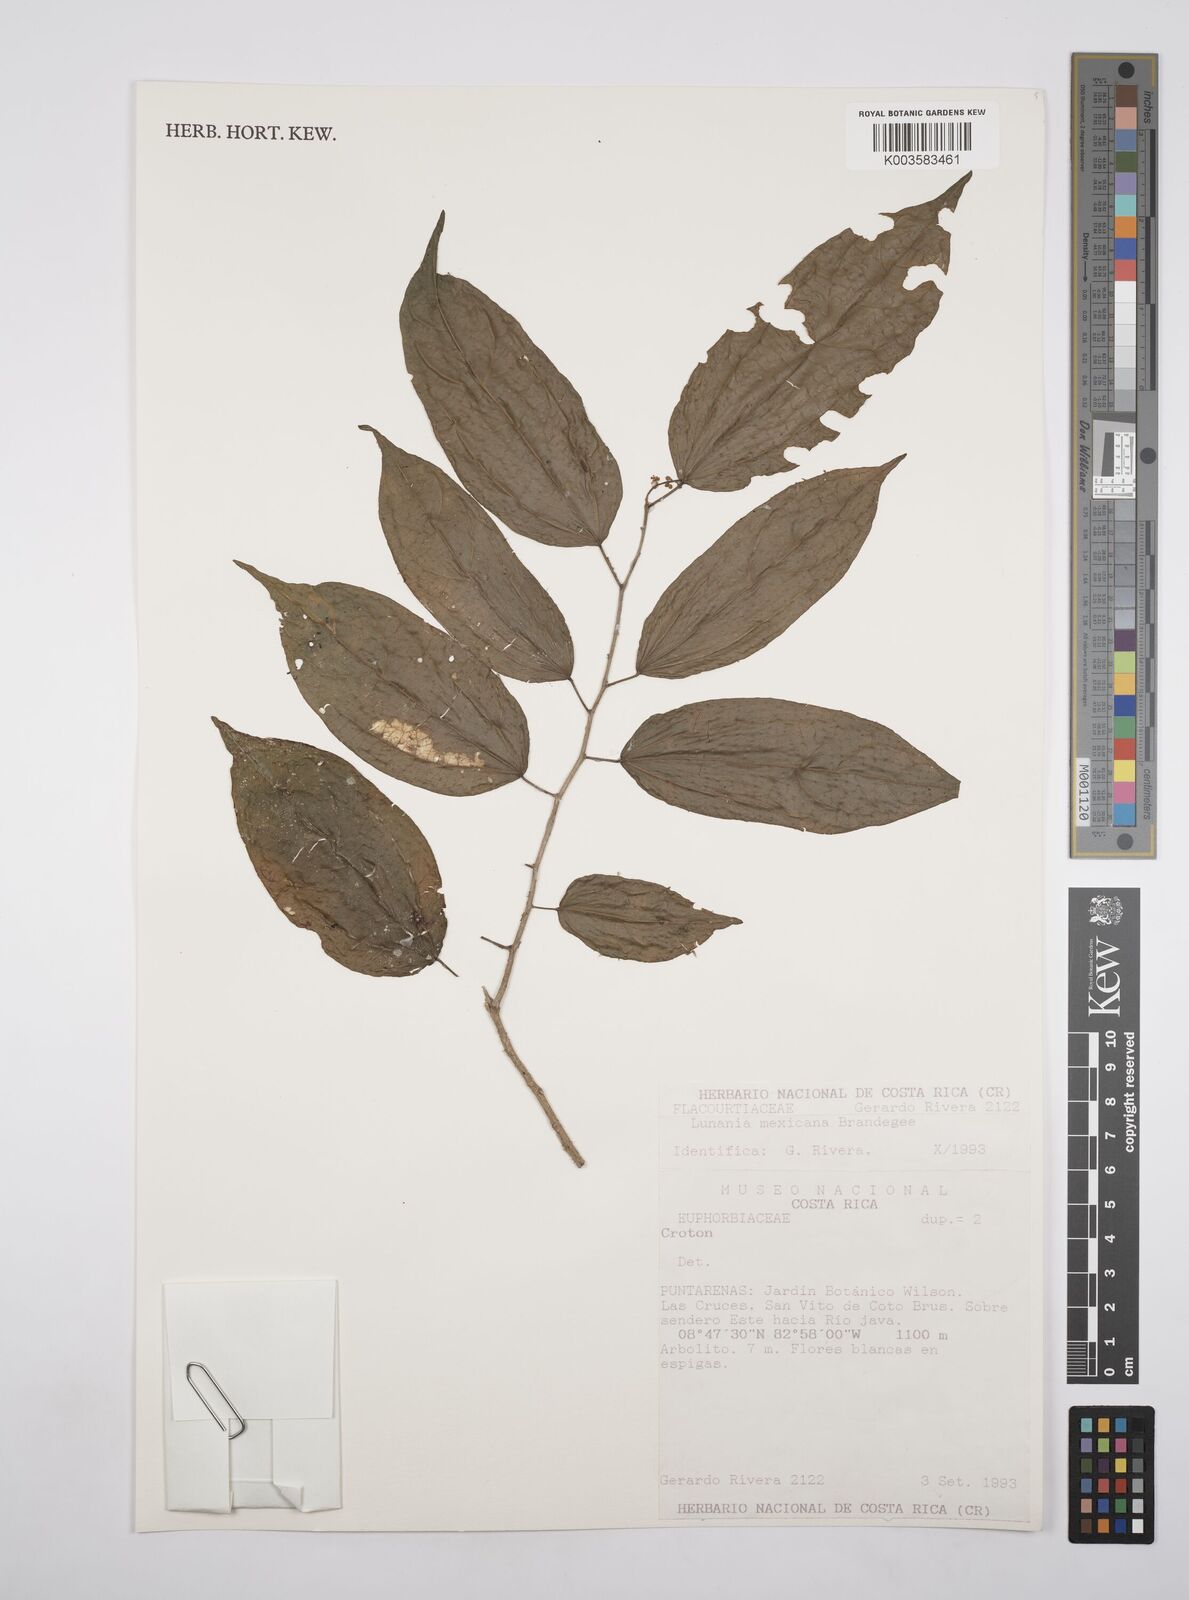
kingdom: Plantae
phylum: Tracheophyta
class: Magnoliopsida
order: Malpighiales
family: Salicaceae
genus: Lunania
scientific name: Lunania mexicana
